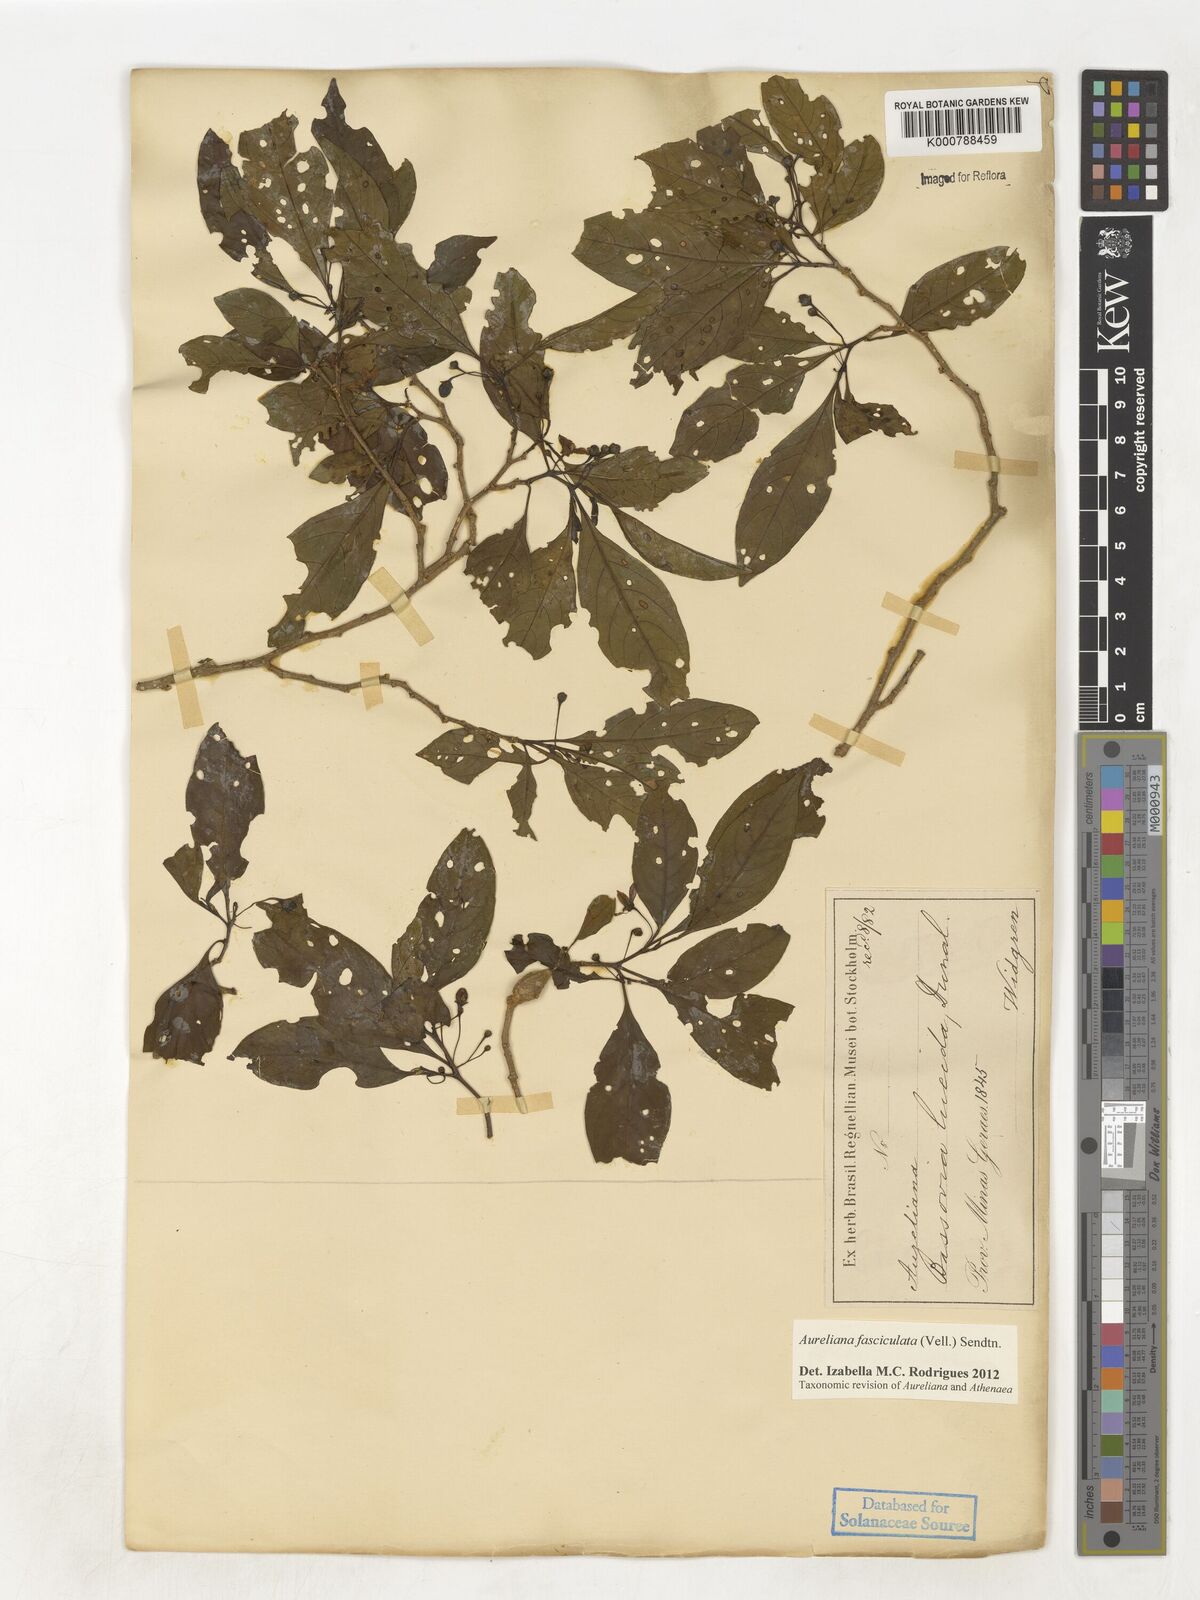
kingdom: Plantae
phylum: Tracheophyta
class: Magnoliopsida
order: Solanales
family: Solanaceae
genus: Athenaea
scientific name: Athenaea fasciculata
